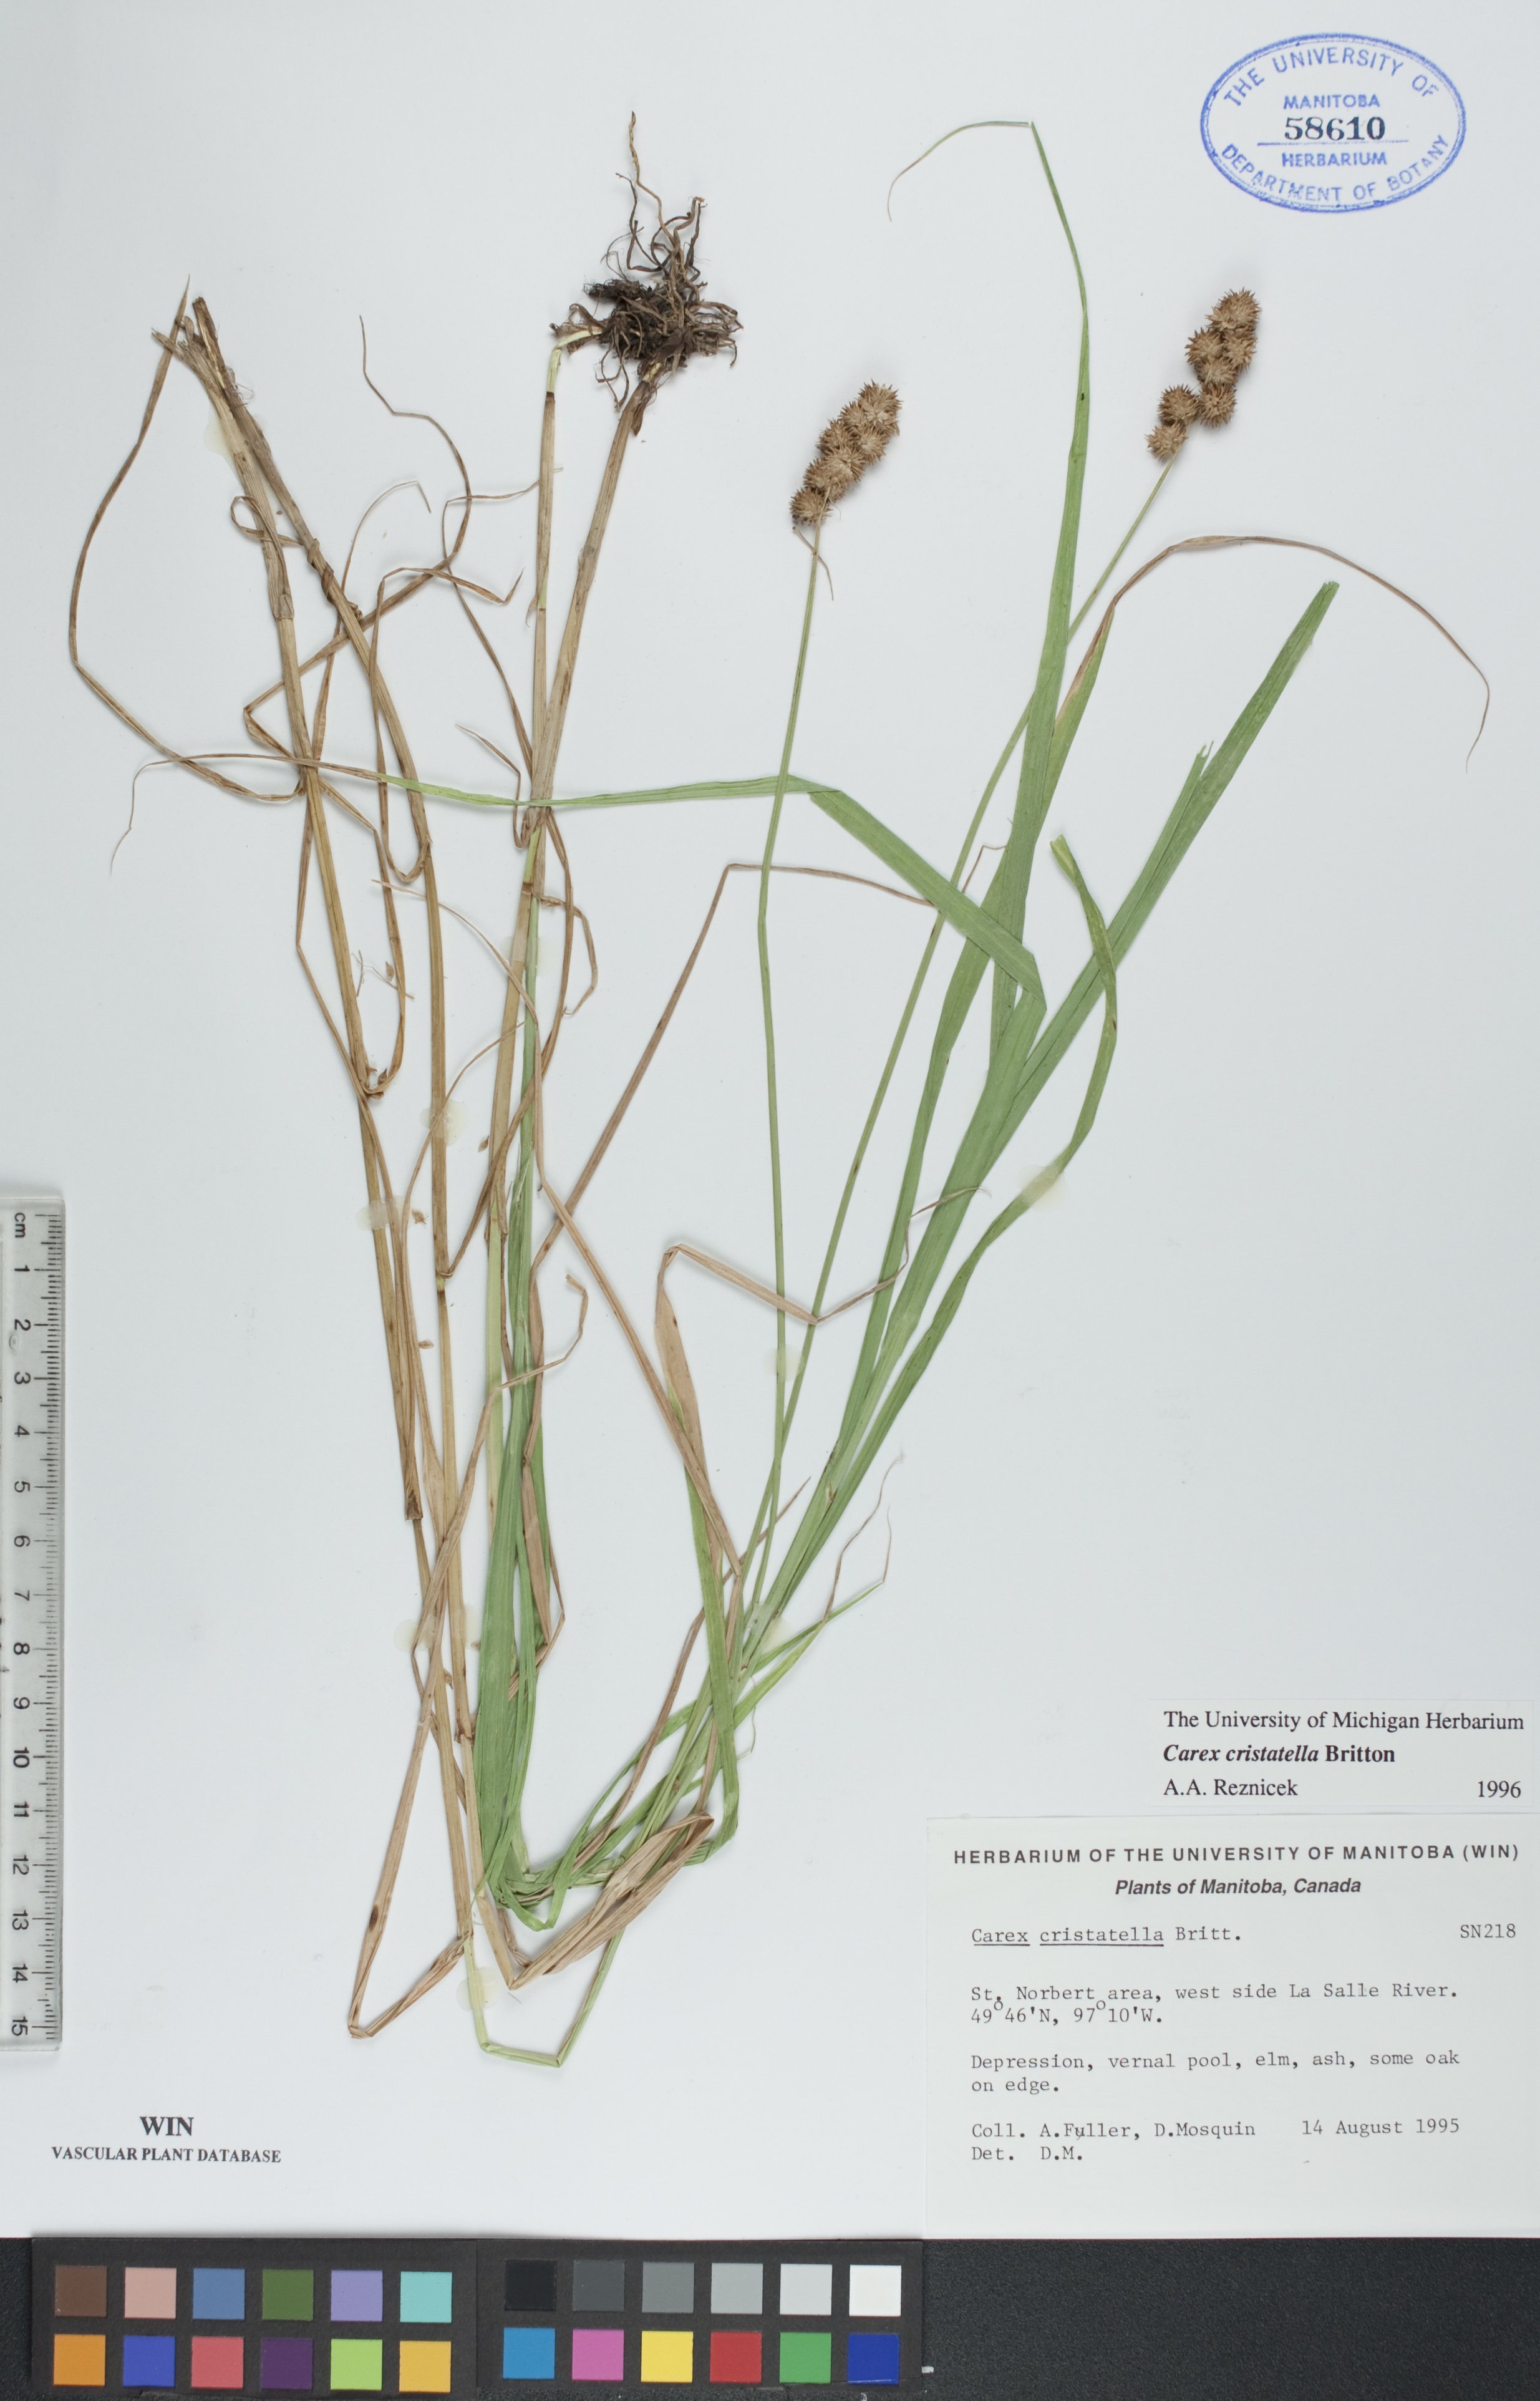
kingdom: Plantae
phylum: Tracheophyta
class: Liliopsida
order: Poales
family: Cyperaceae
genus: Carex
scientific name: Carex cristatella
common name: Crested oval sedge
